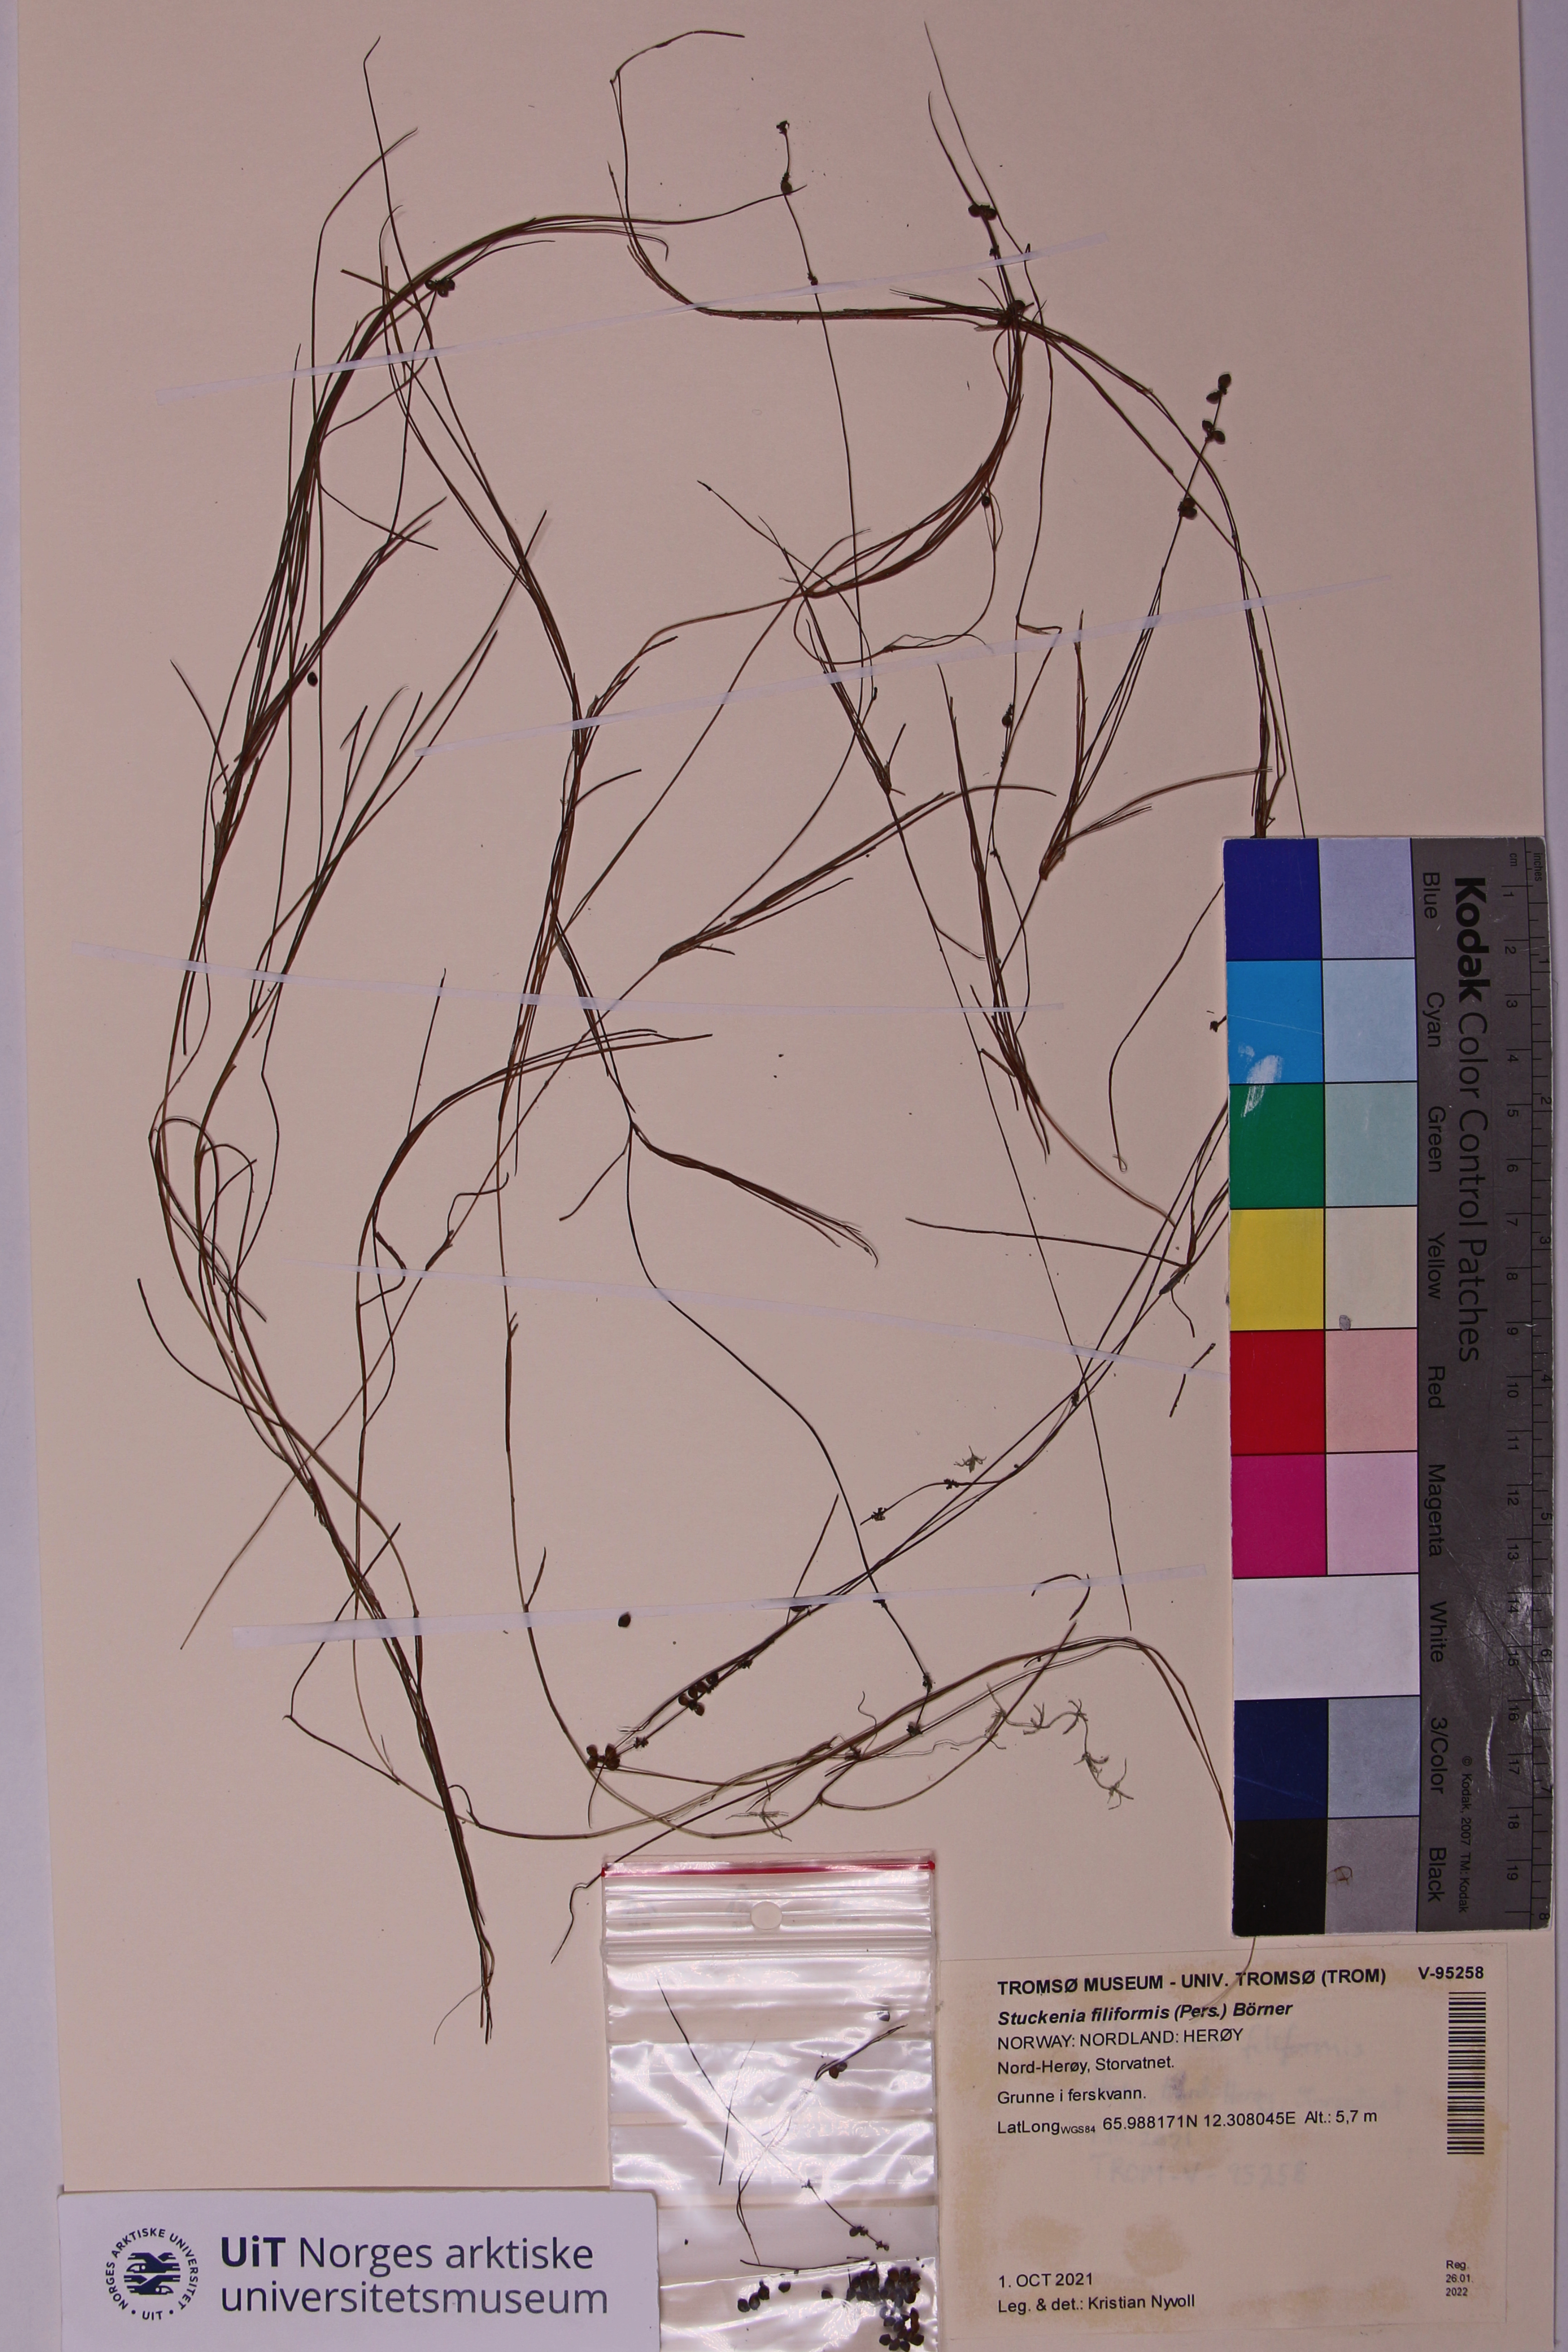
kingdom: Plantae
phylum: Tracheophyta
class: Liliopsida
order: Alismatales
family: Potamogetonaceae
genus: Stuckenia
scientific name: Stuckenia filiformis
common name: Alpine thread-leaved pondweed
